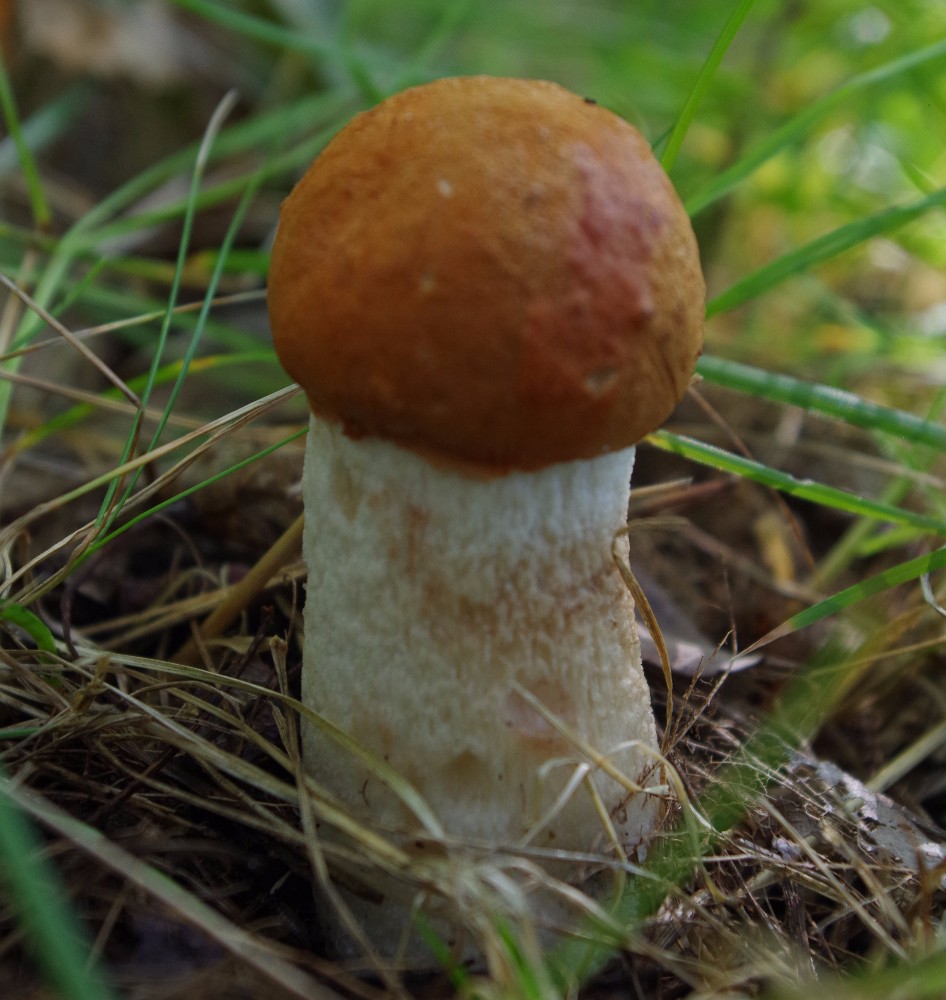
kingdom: Fungi
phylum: Basidiomycota
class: Agaricomycetes
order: Boletales
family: Boletaceae
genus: Leccinum
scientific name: Leccinum albostipitatum
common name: aspe-skælrørhat
